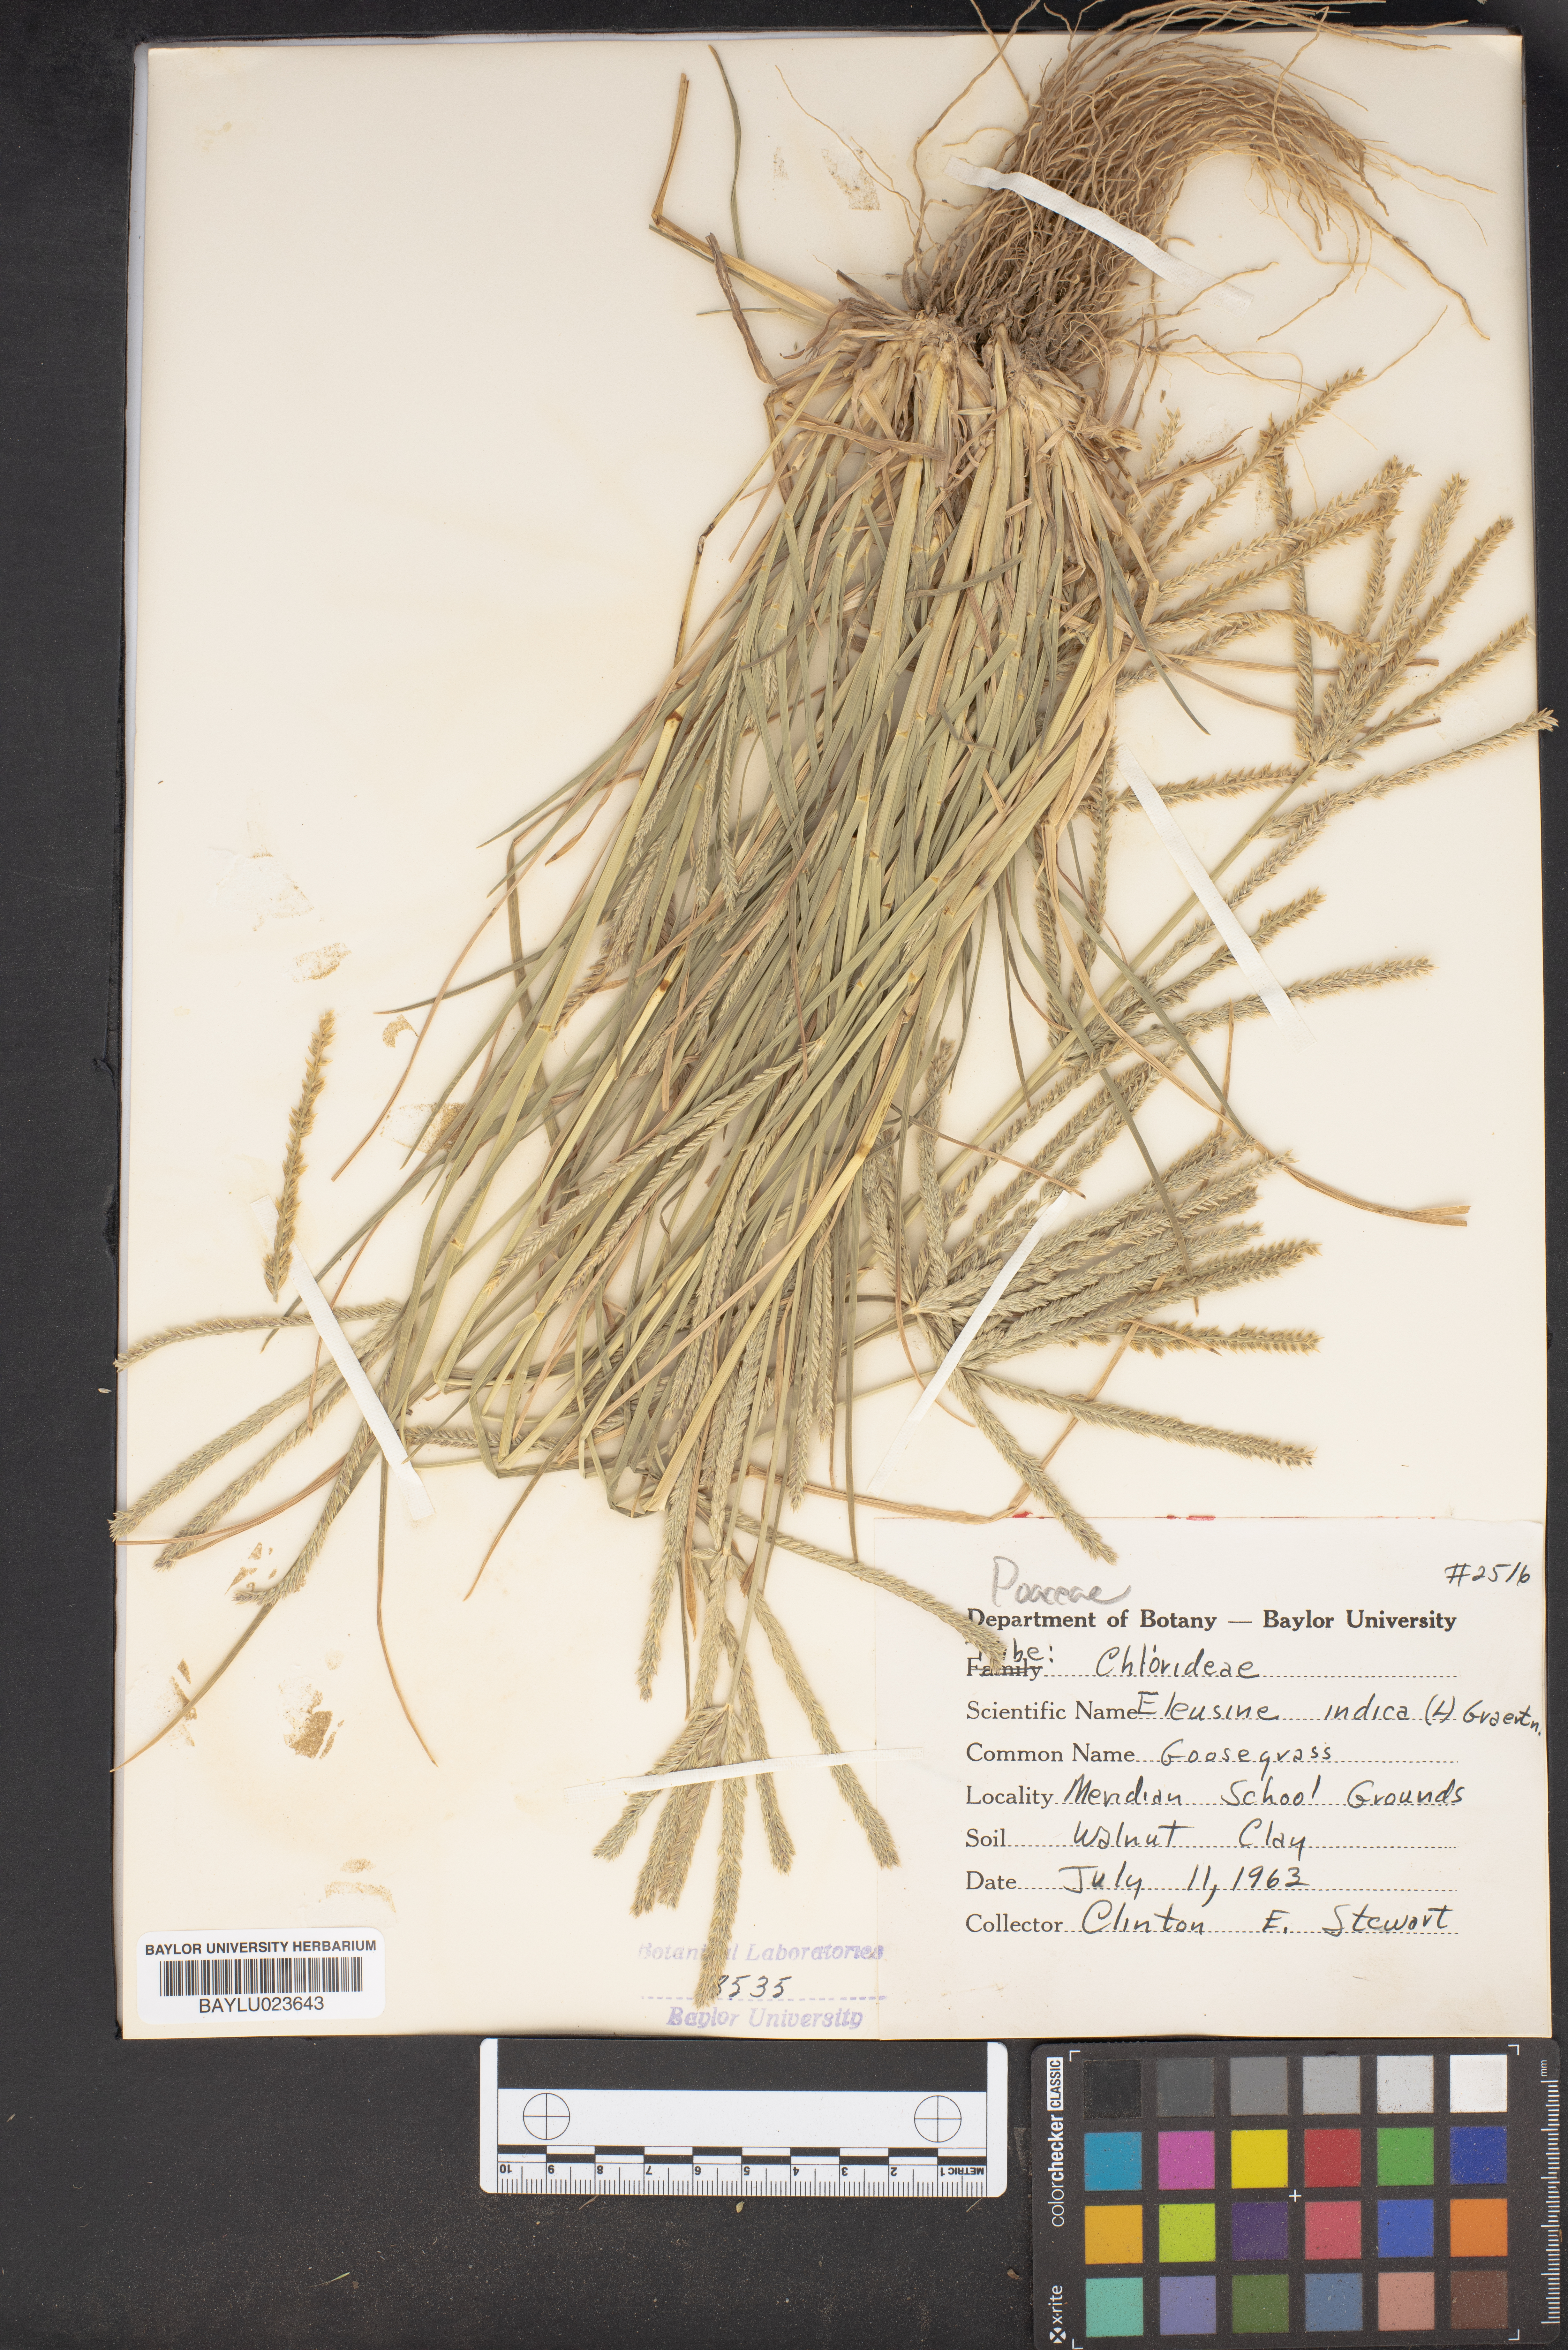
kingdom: Plantae
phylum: Tracheophyta
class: Liliopsida
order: Poales
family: Poaceae
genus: Eleusine
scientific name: Eleusine indica
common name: Yard-grass
